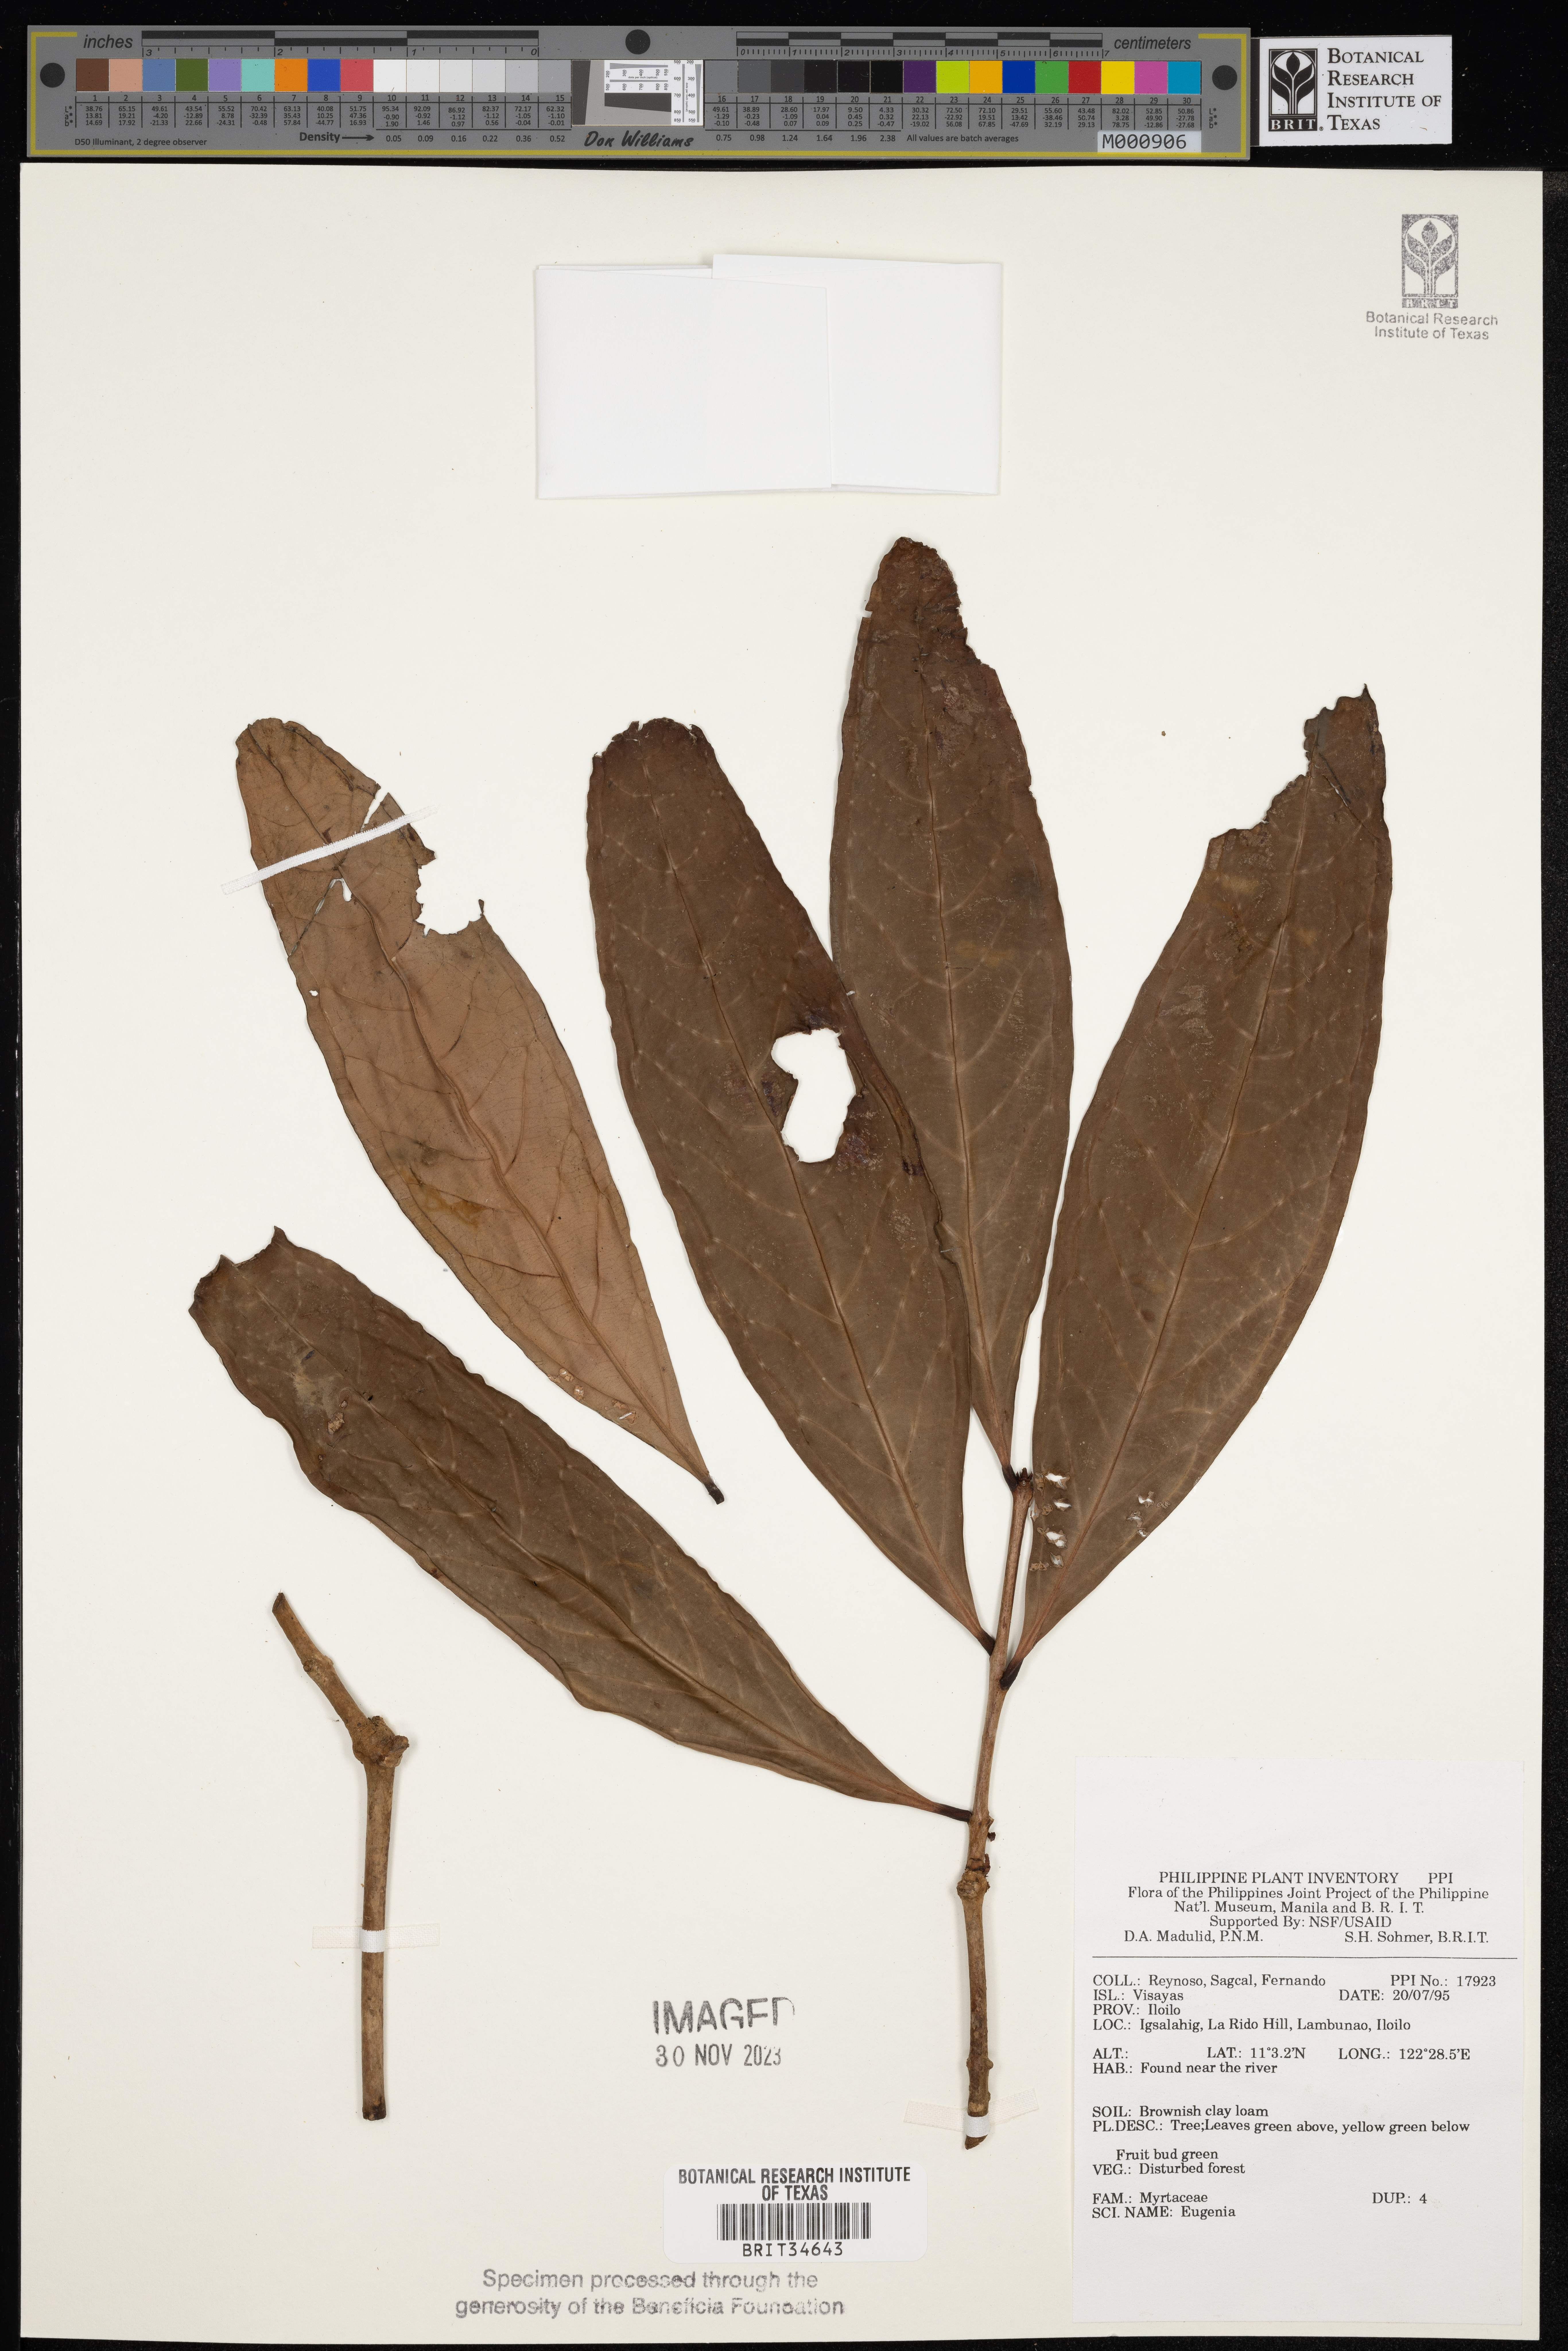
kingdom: Plantae
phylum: Tracheophyta
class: Magnoliopsida
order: Myrtales
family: Myrtaceae
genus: Eugenia
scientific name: Eugenia
